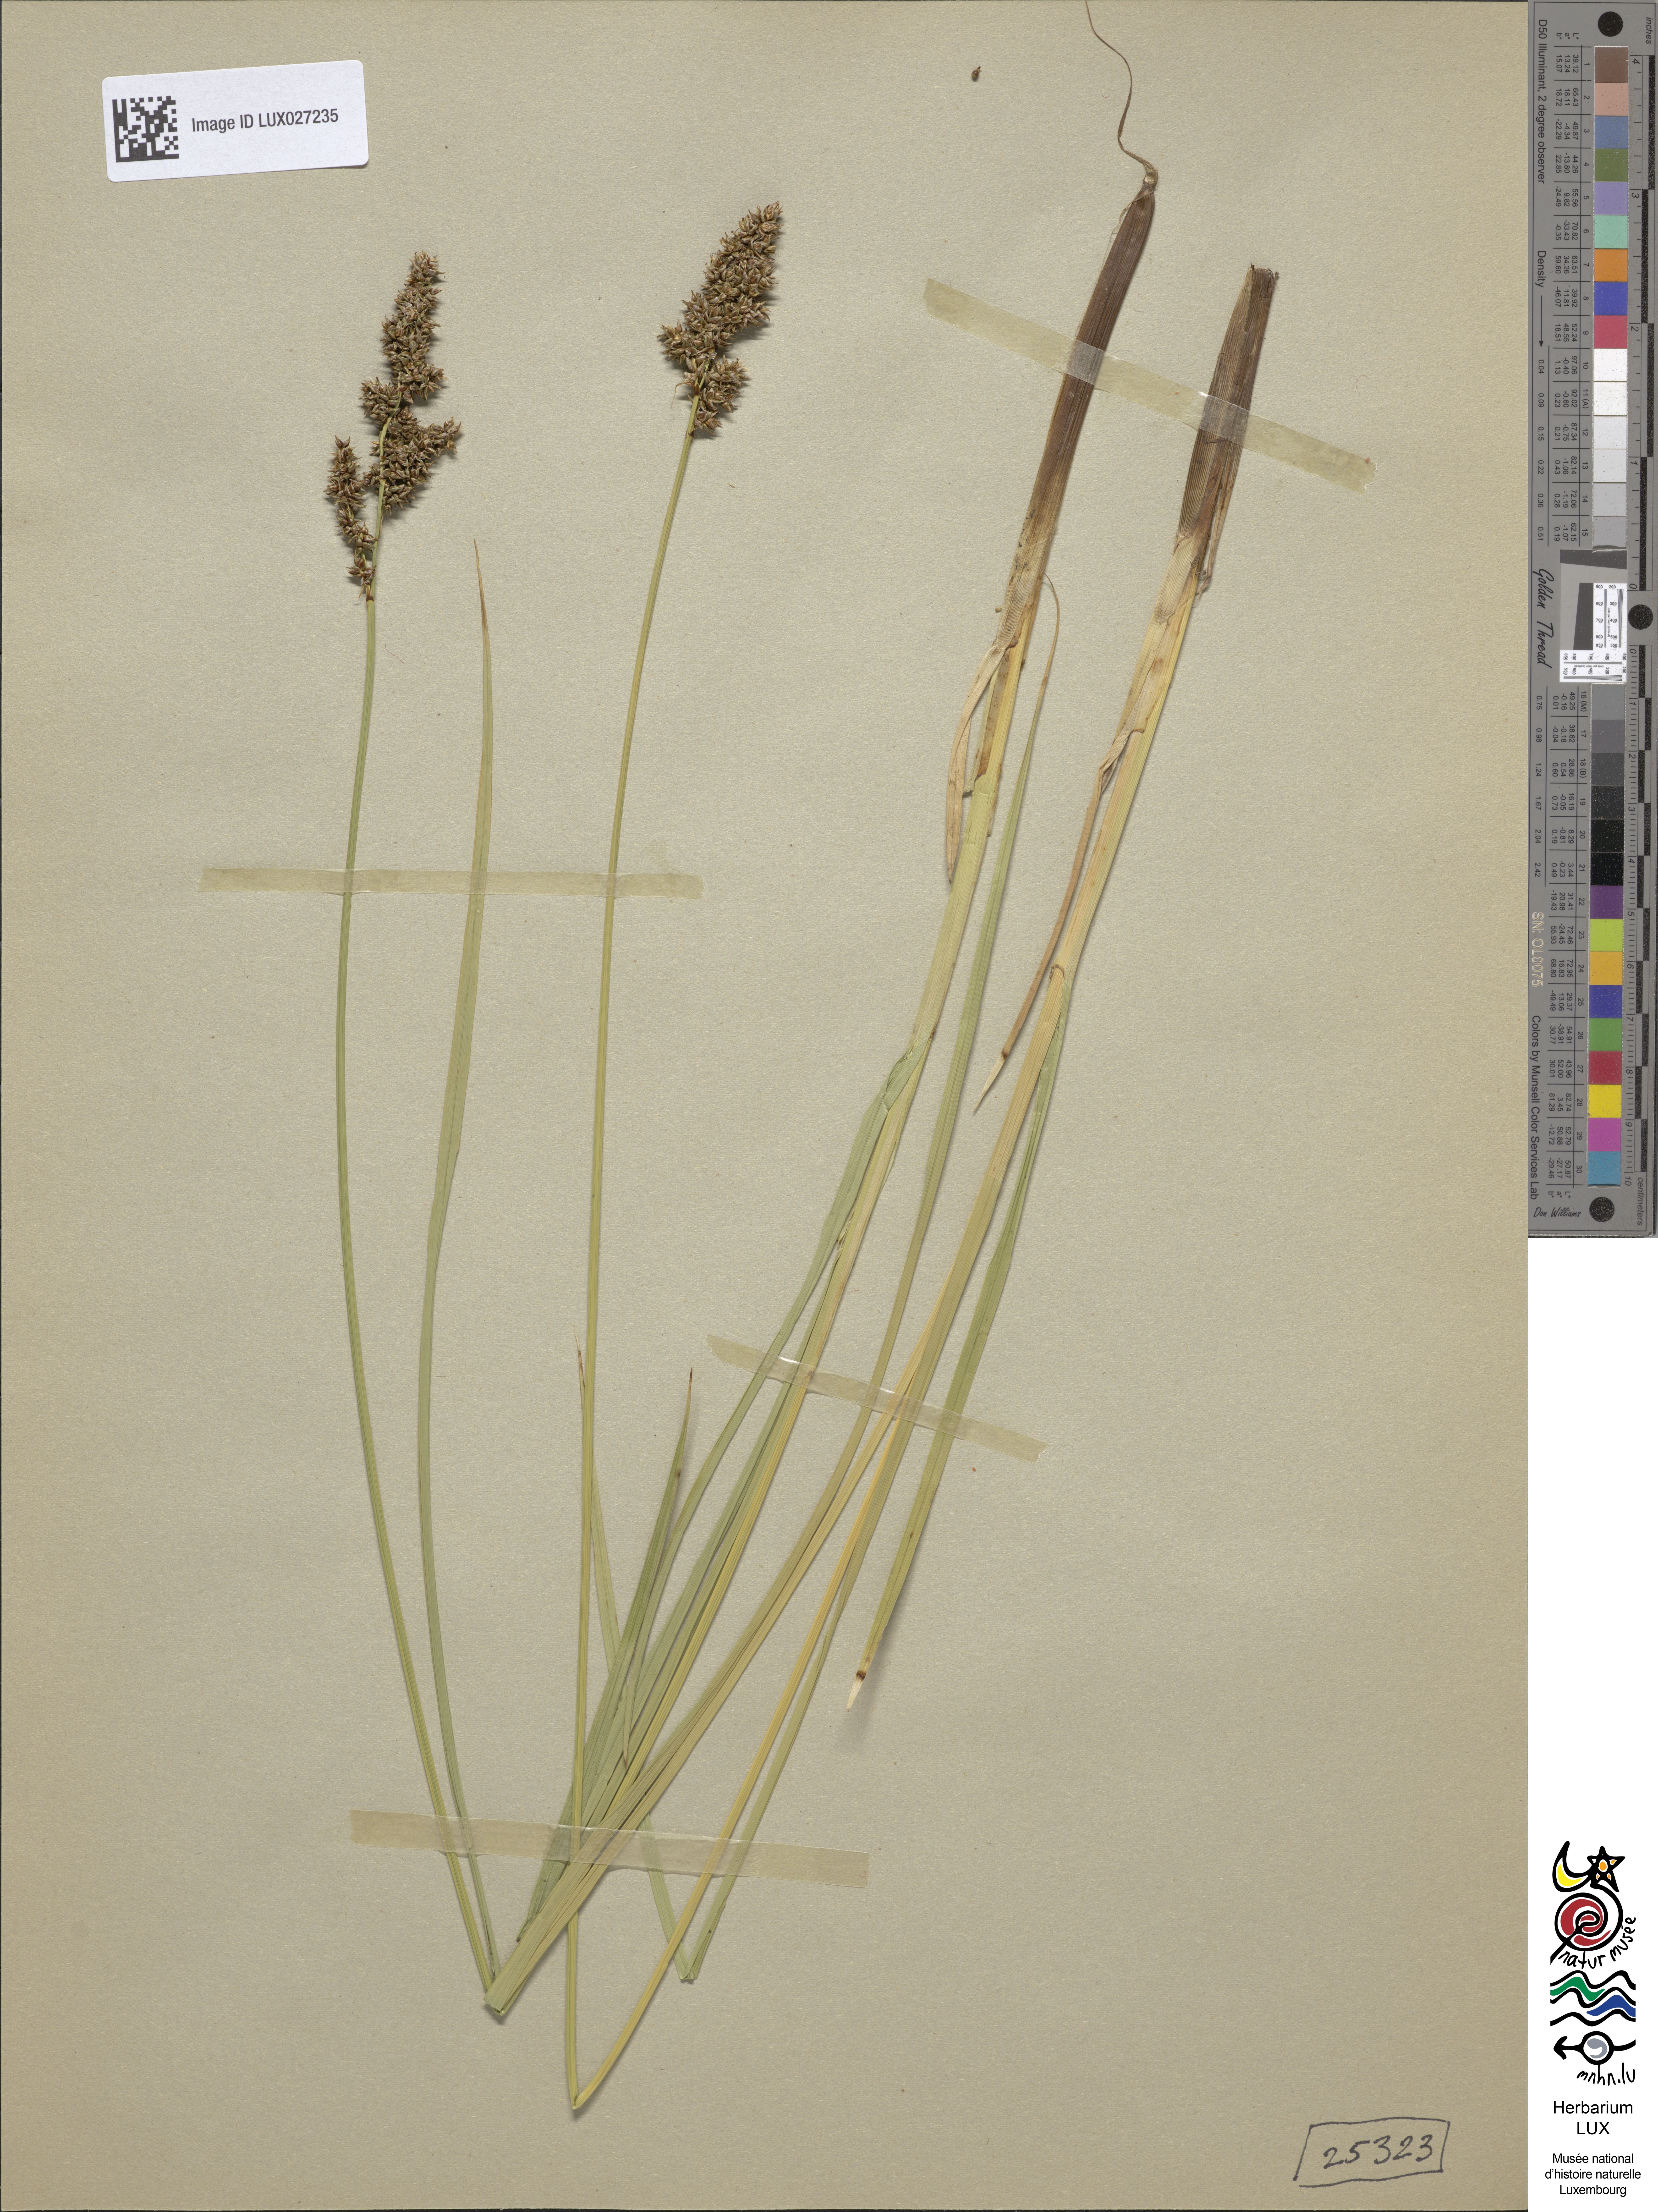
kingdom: Plantae
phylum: Tracheophyta
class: Liliopsida
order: Poales
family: Cyperaceae
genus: Carex
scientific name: Carex paniculata
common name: Greater tussock-sedge
